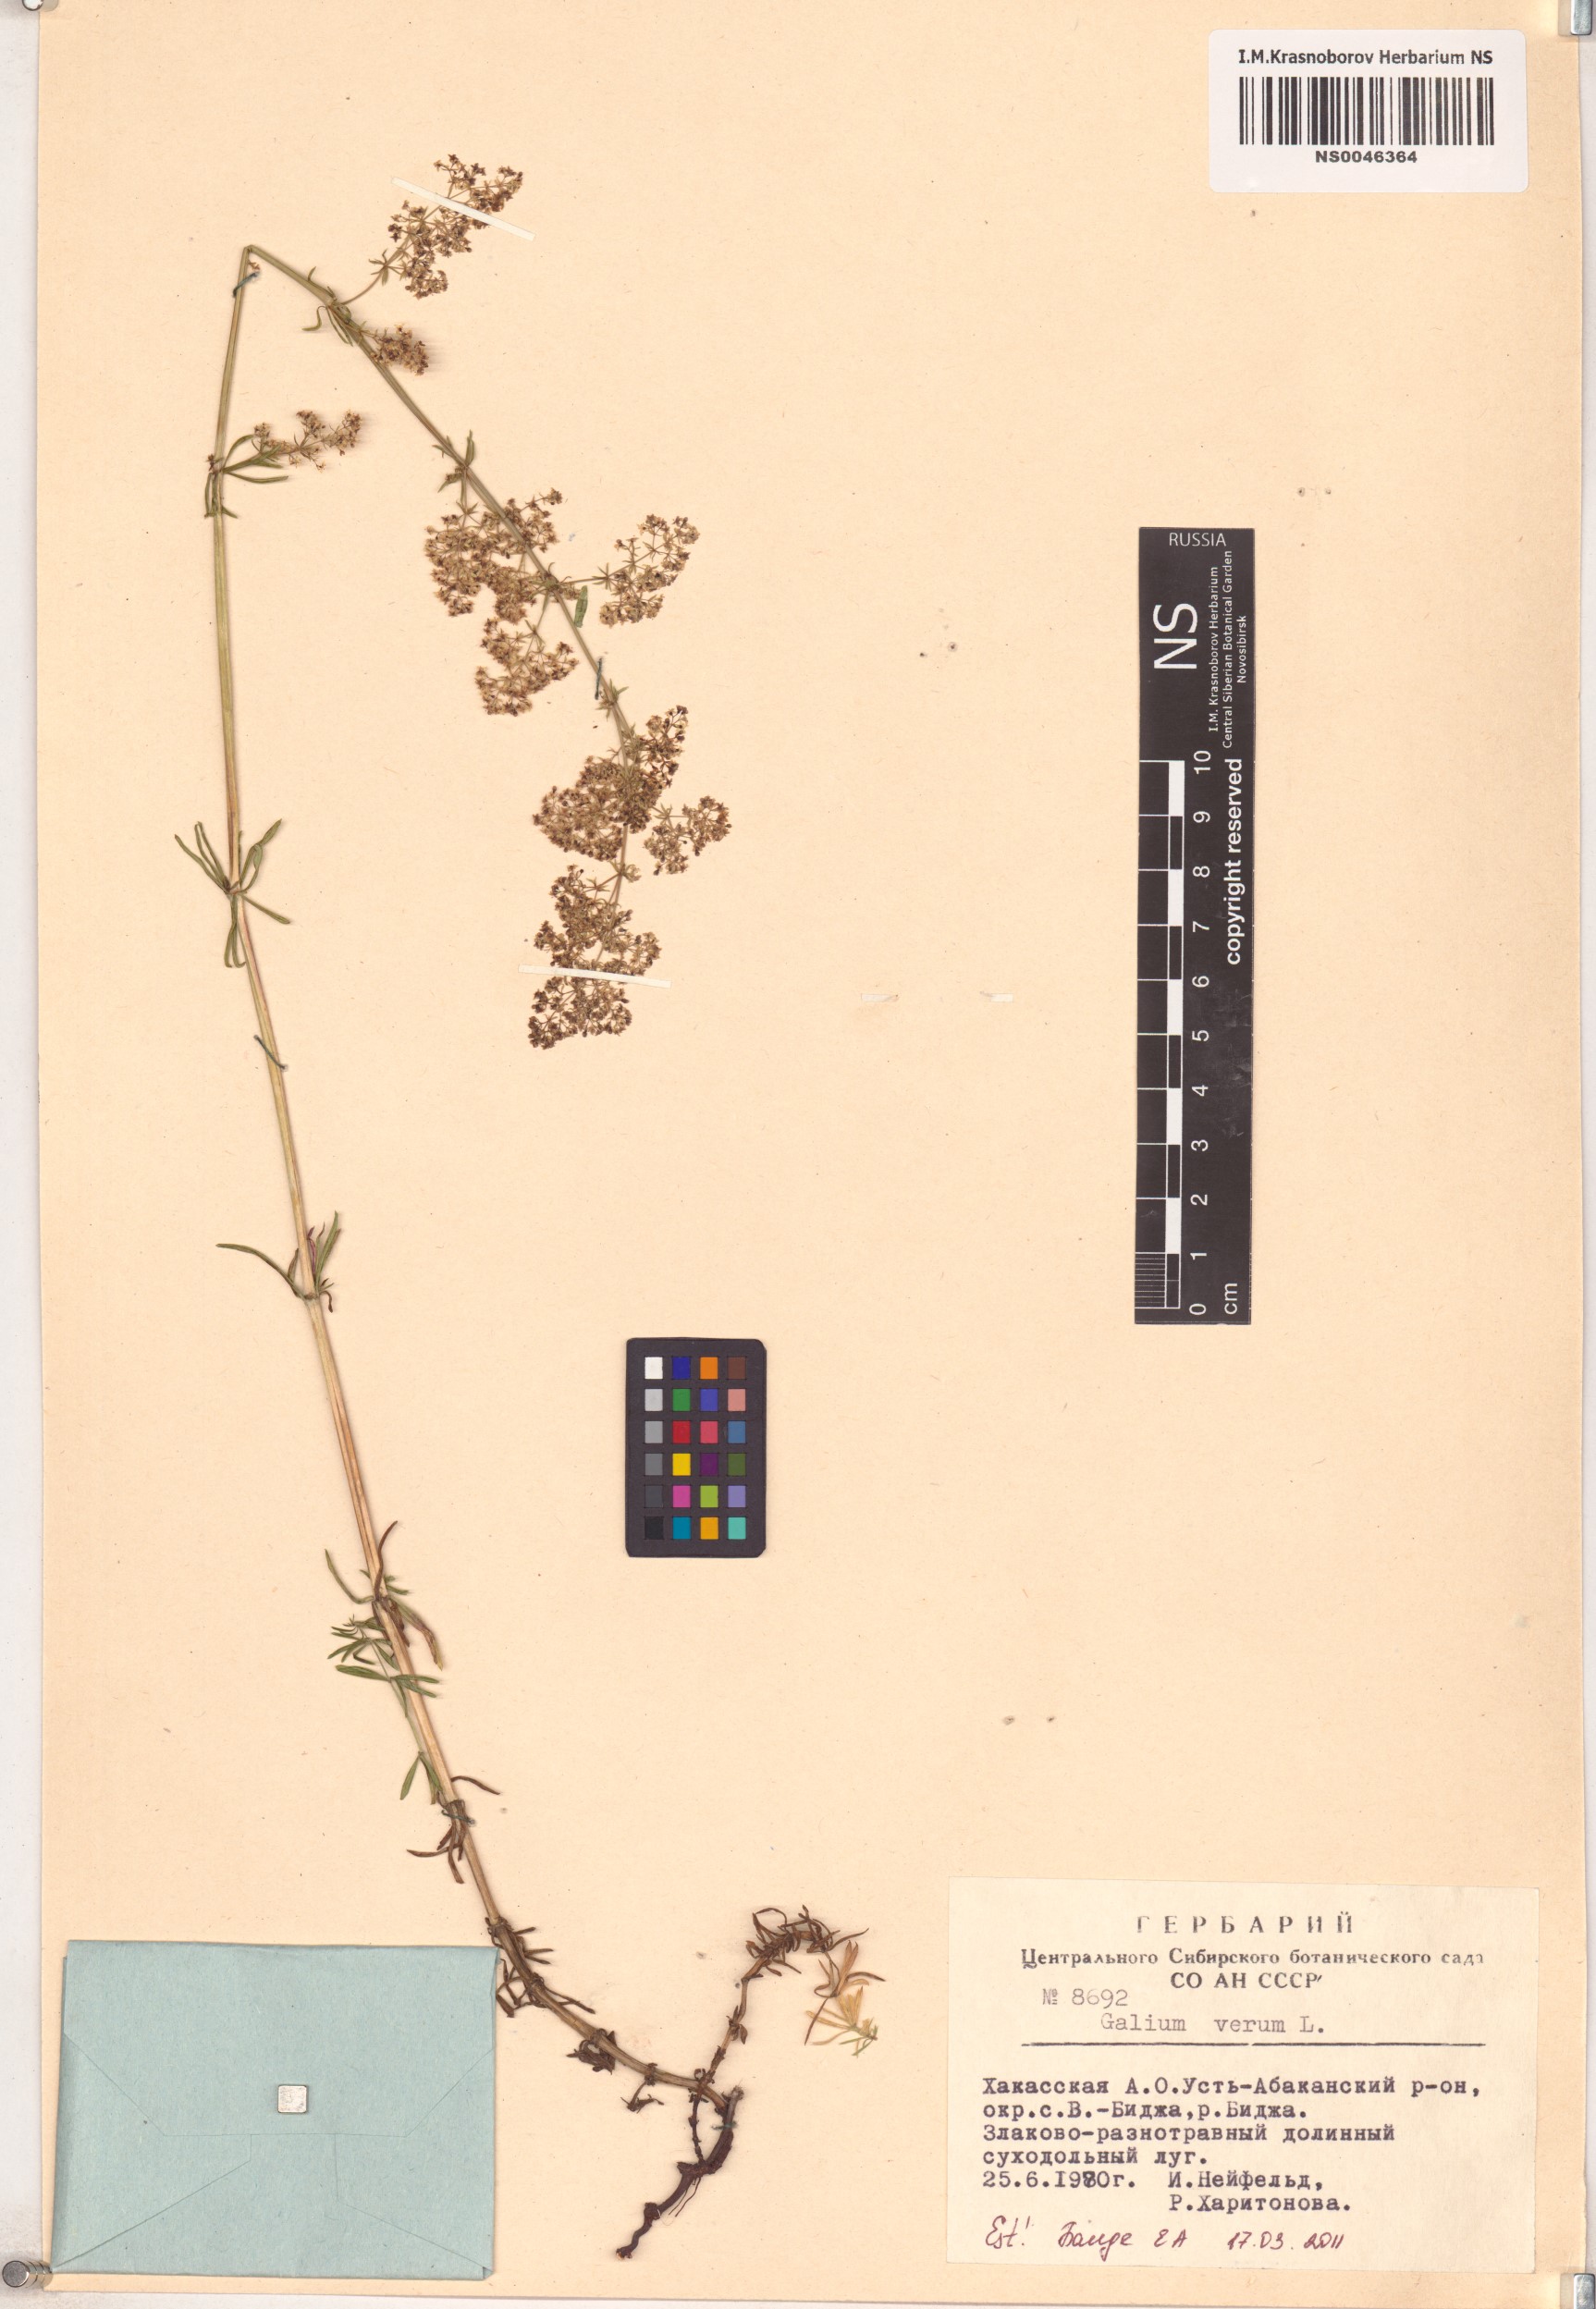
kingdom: Plantae
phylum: Tracheophyta
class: Magnoliopsida
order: Gentianales
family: Rubiaceae
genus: Galium
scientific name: Galium verum
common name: Lady's bedstraw
